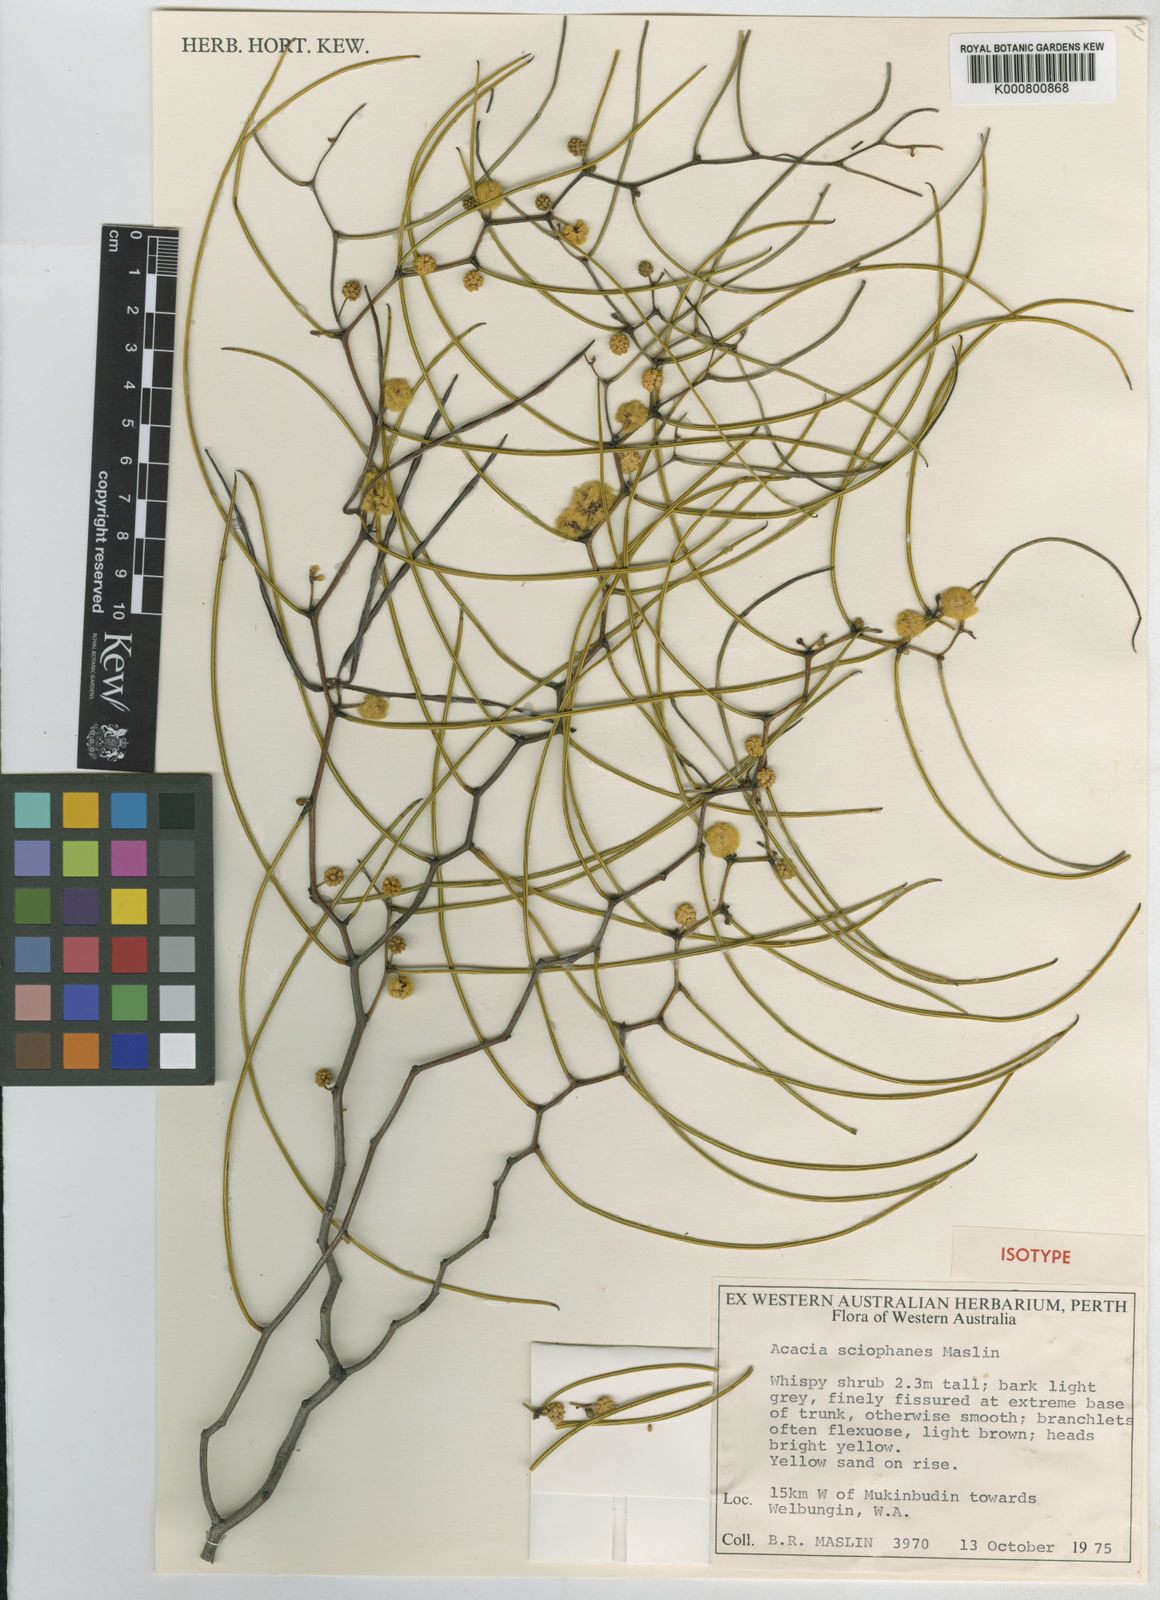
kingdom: Plantae
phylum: Tracheophyta
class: Magnoliopsida
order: Fabales
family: Fabaceae
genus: Acacia
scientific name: Acacia sciophanes
